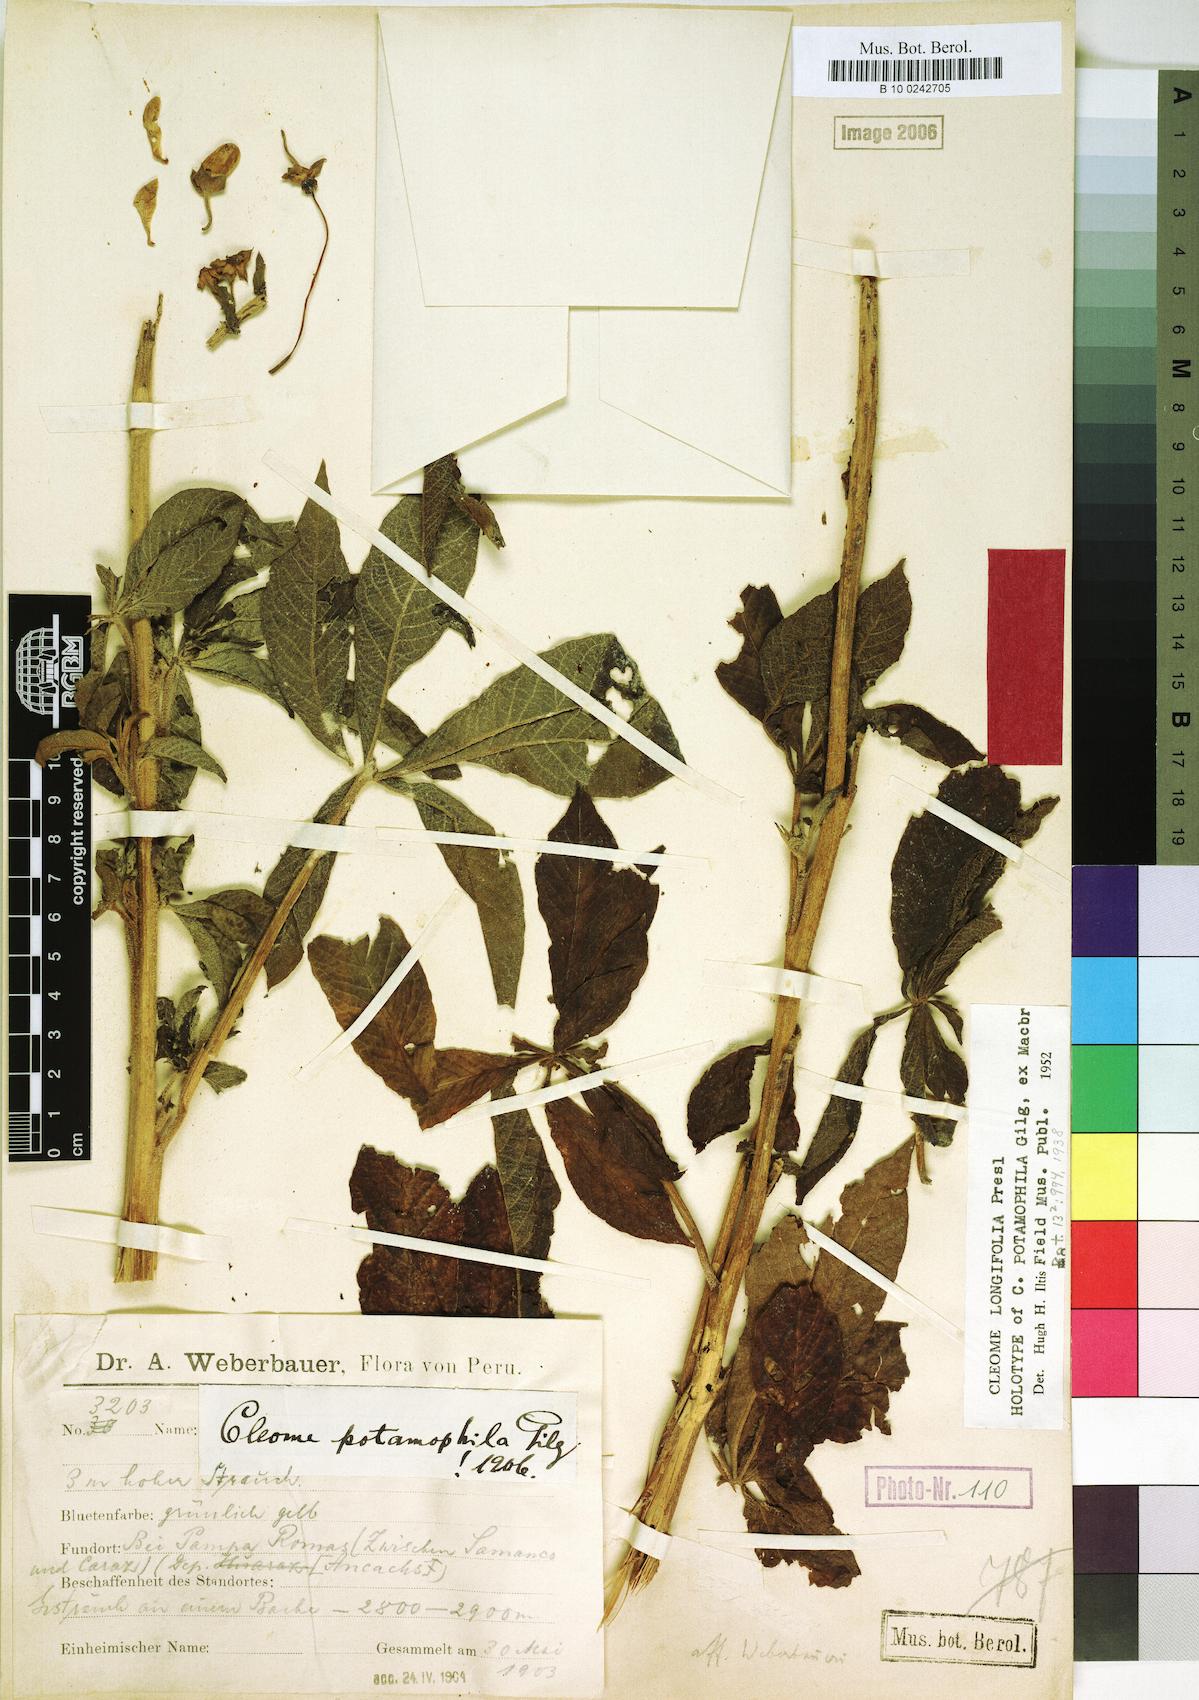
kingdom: Plantae
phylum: Tracheophyta
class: Magnoliopsida
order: Brassicales
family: Cleomaceae
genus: Andinocleome
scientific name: Andinocleome longifolia
